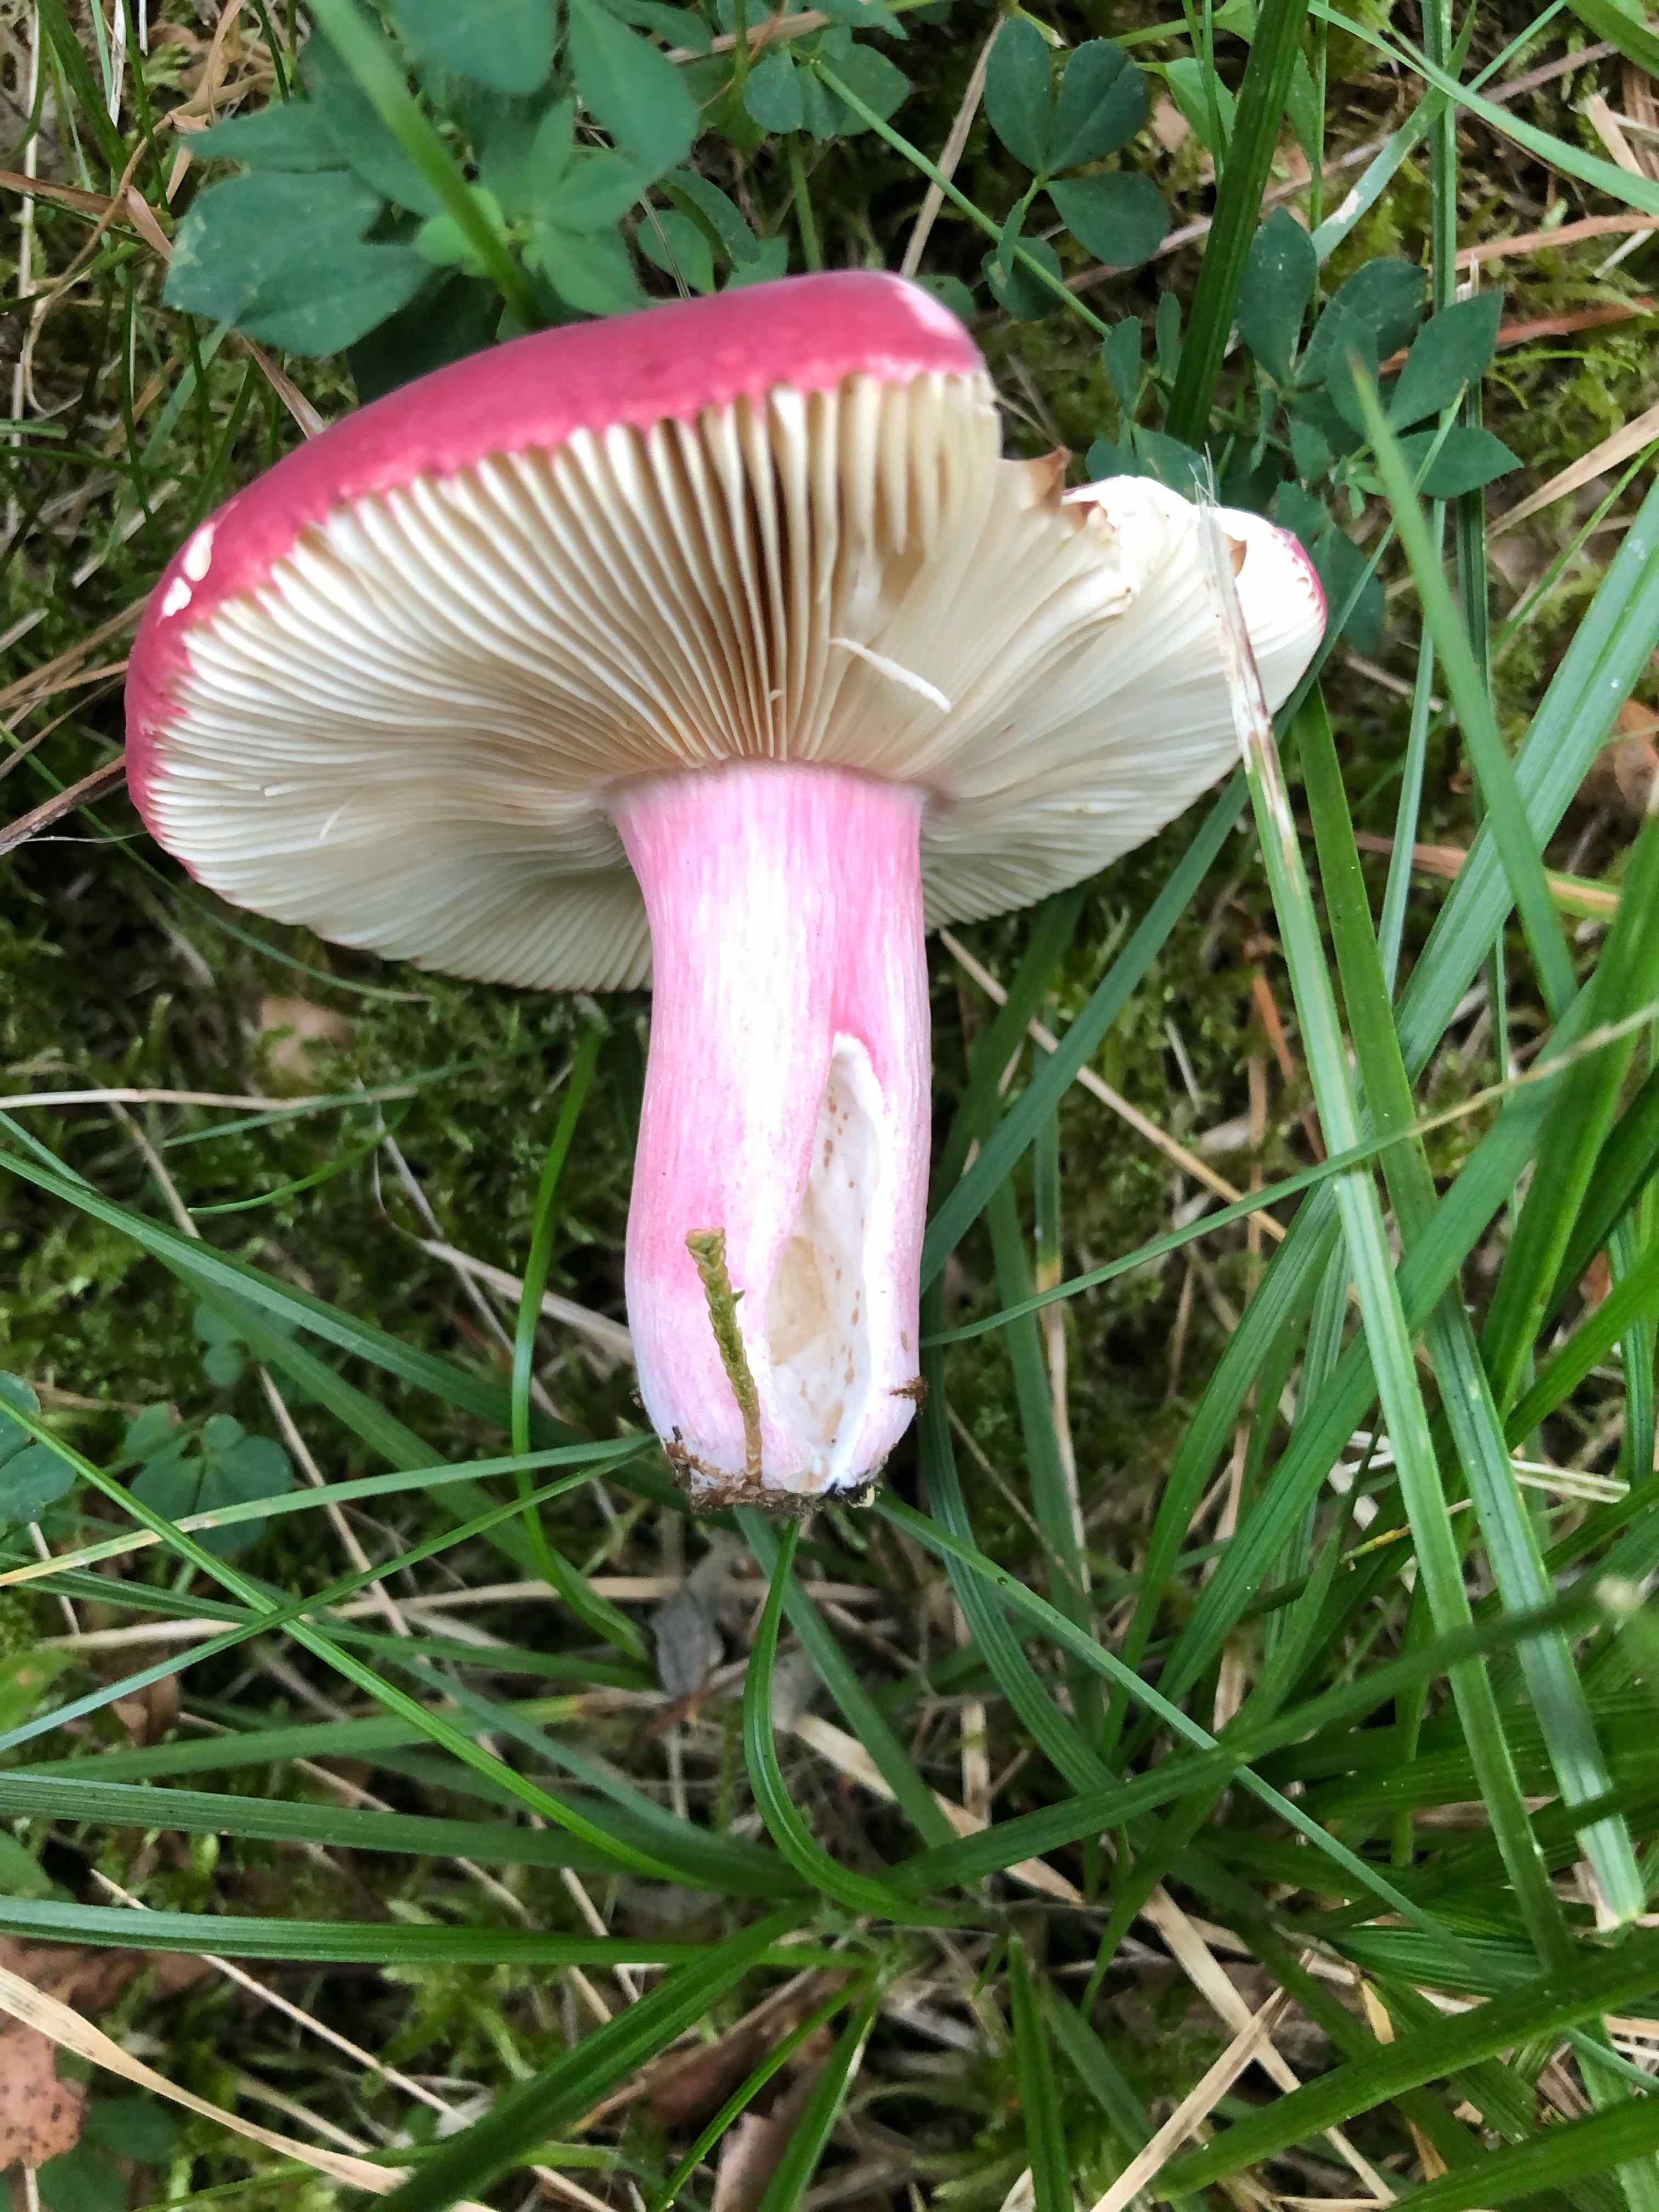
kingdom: Fungi
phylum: Basidiomycota
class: Agaricomycetes
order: Russulales
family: Russulaceae
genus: Russula
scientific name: Russula xerampelina
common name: hummer-skørhat
